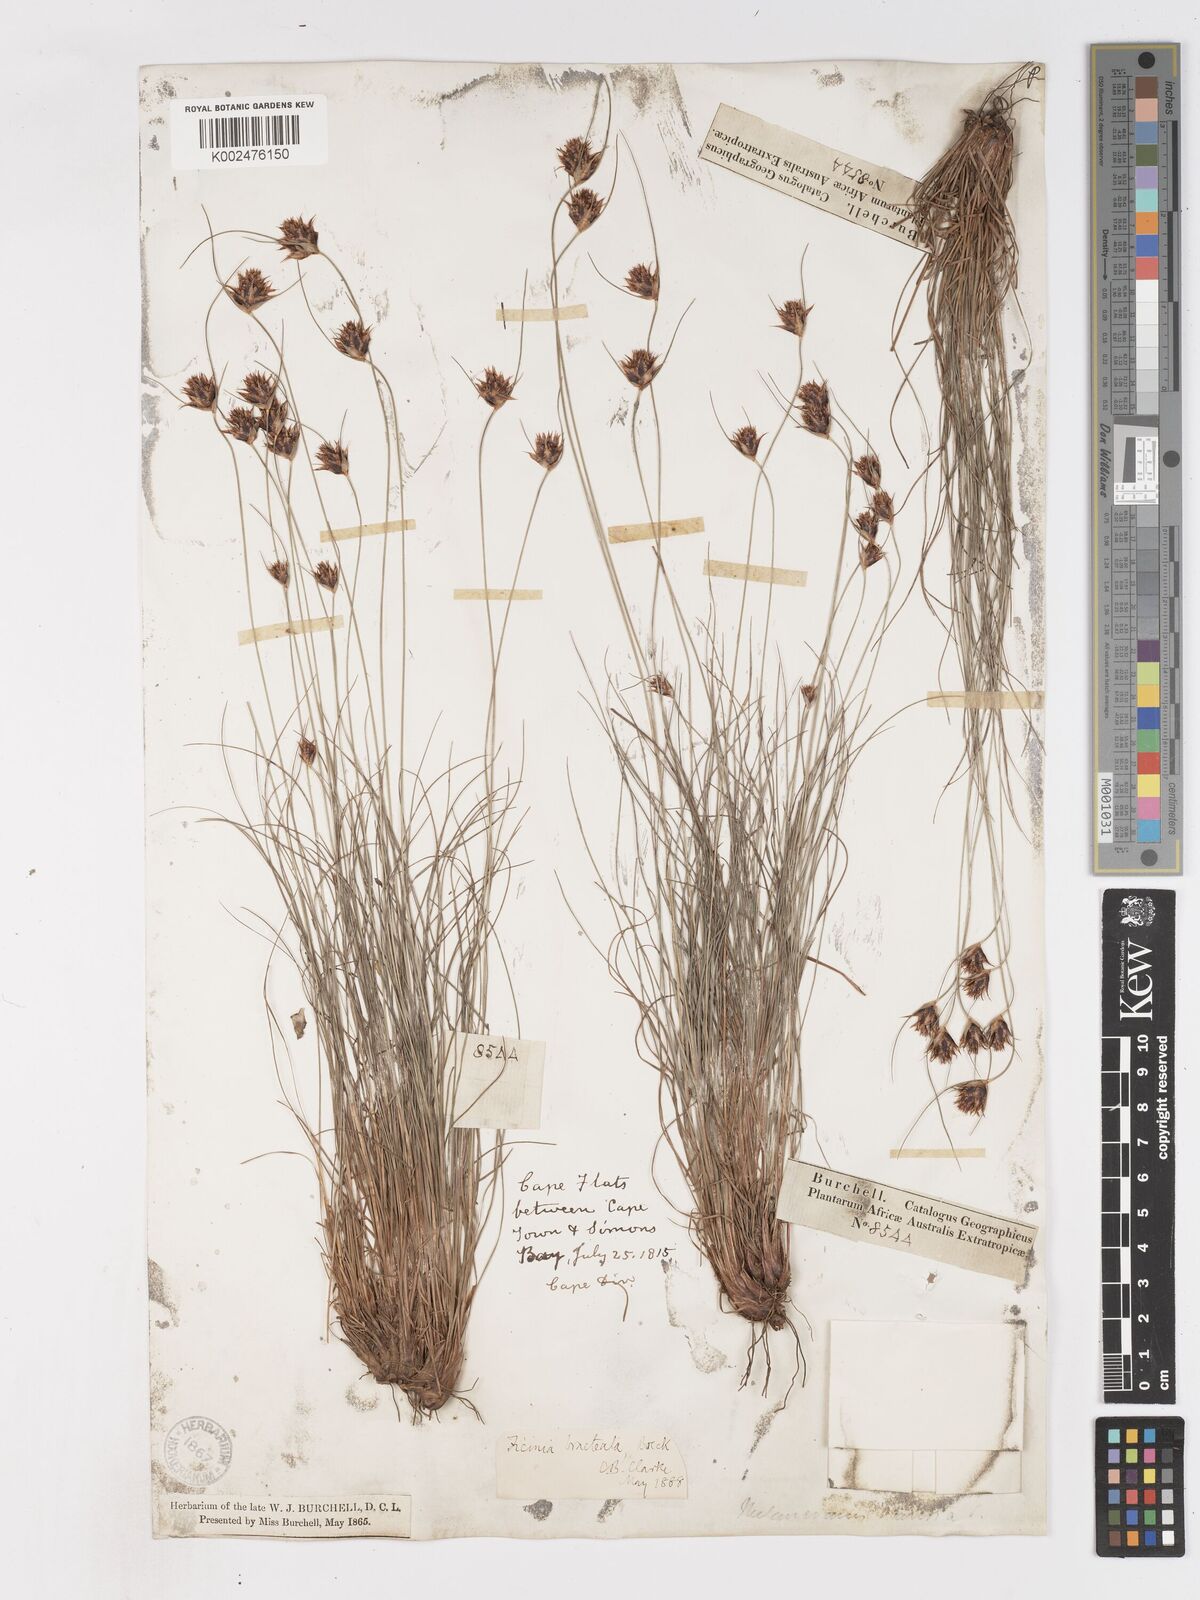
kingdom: Plantae
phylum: Tracheophyta
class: Liliopsida
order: Poales
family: Cyperaceae
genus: Ficinia
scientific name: Ficinia nigrescens
